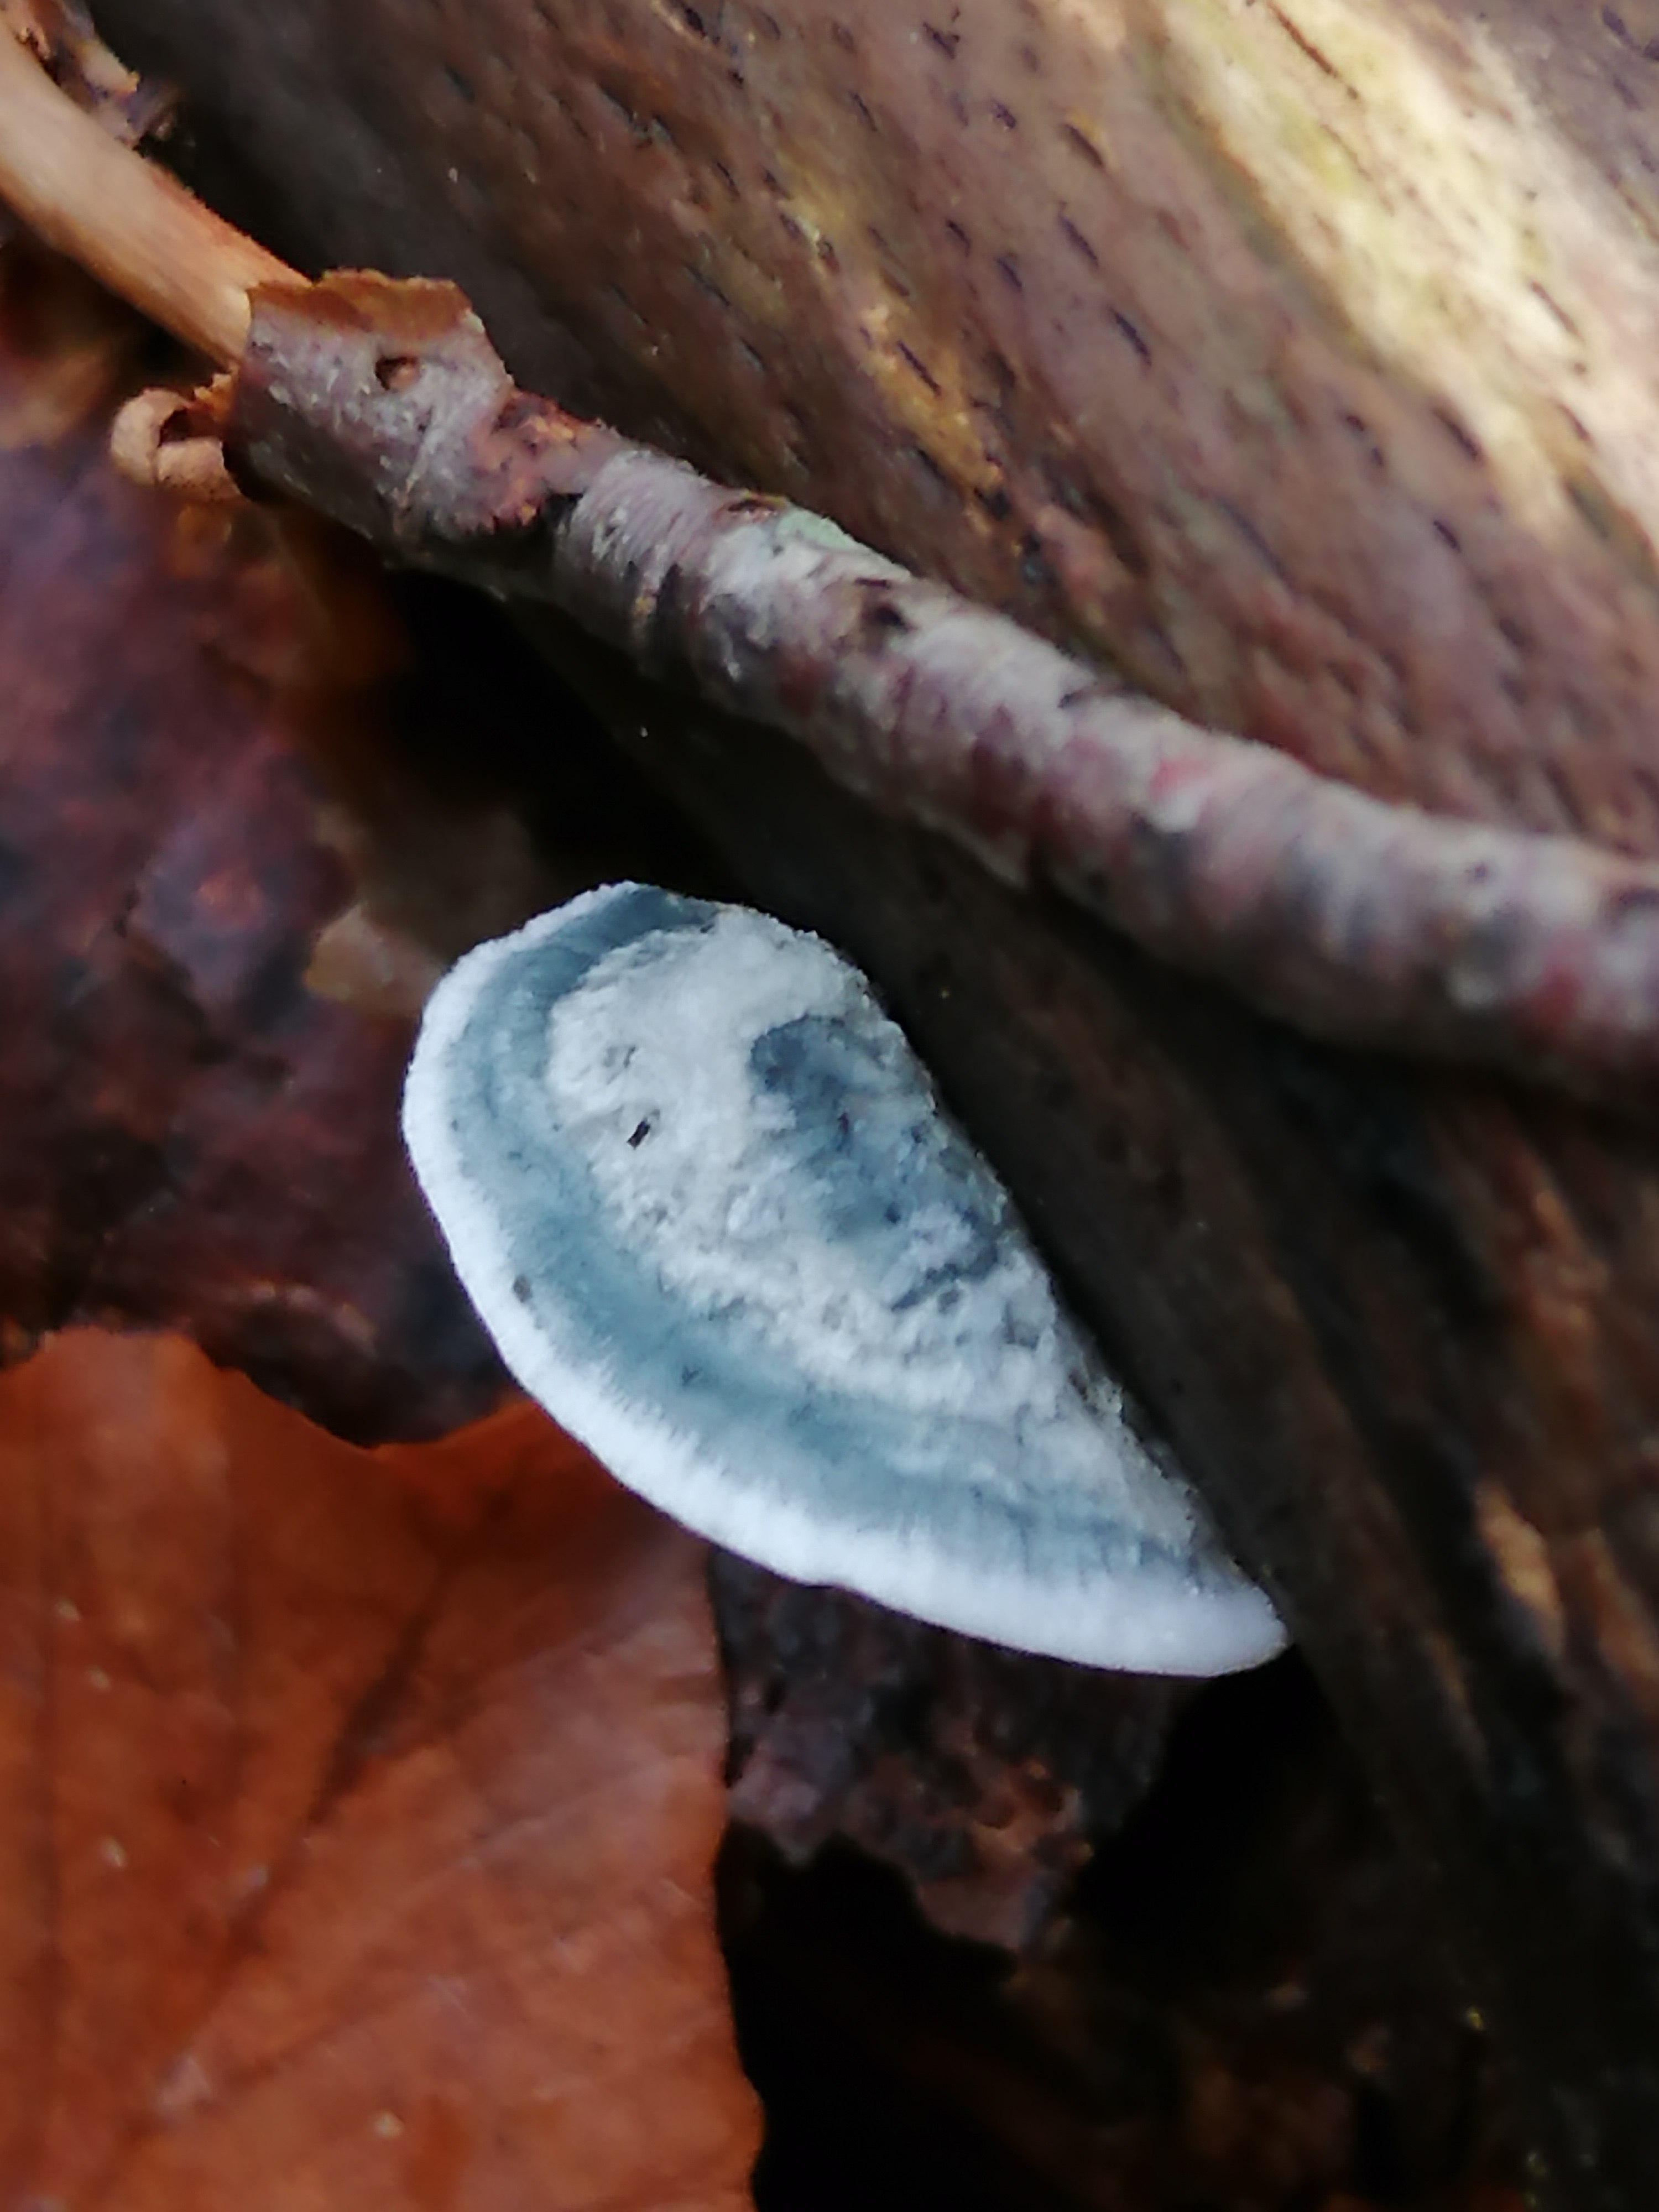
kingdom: Fungi
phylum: Basidiomycota
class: Agaricomycetes
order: Polyporales
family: Polyporaceae
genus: Cyanosporus
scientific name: Cyanosporus alni
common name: blegblå kødporesvamp
